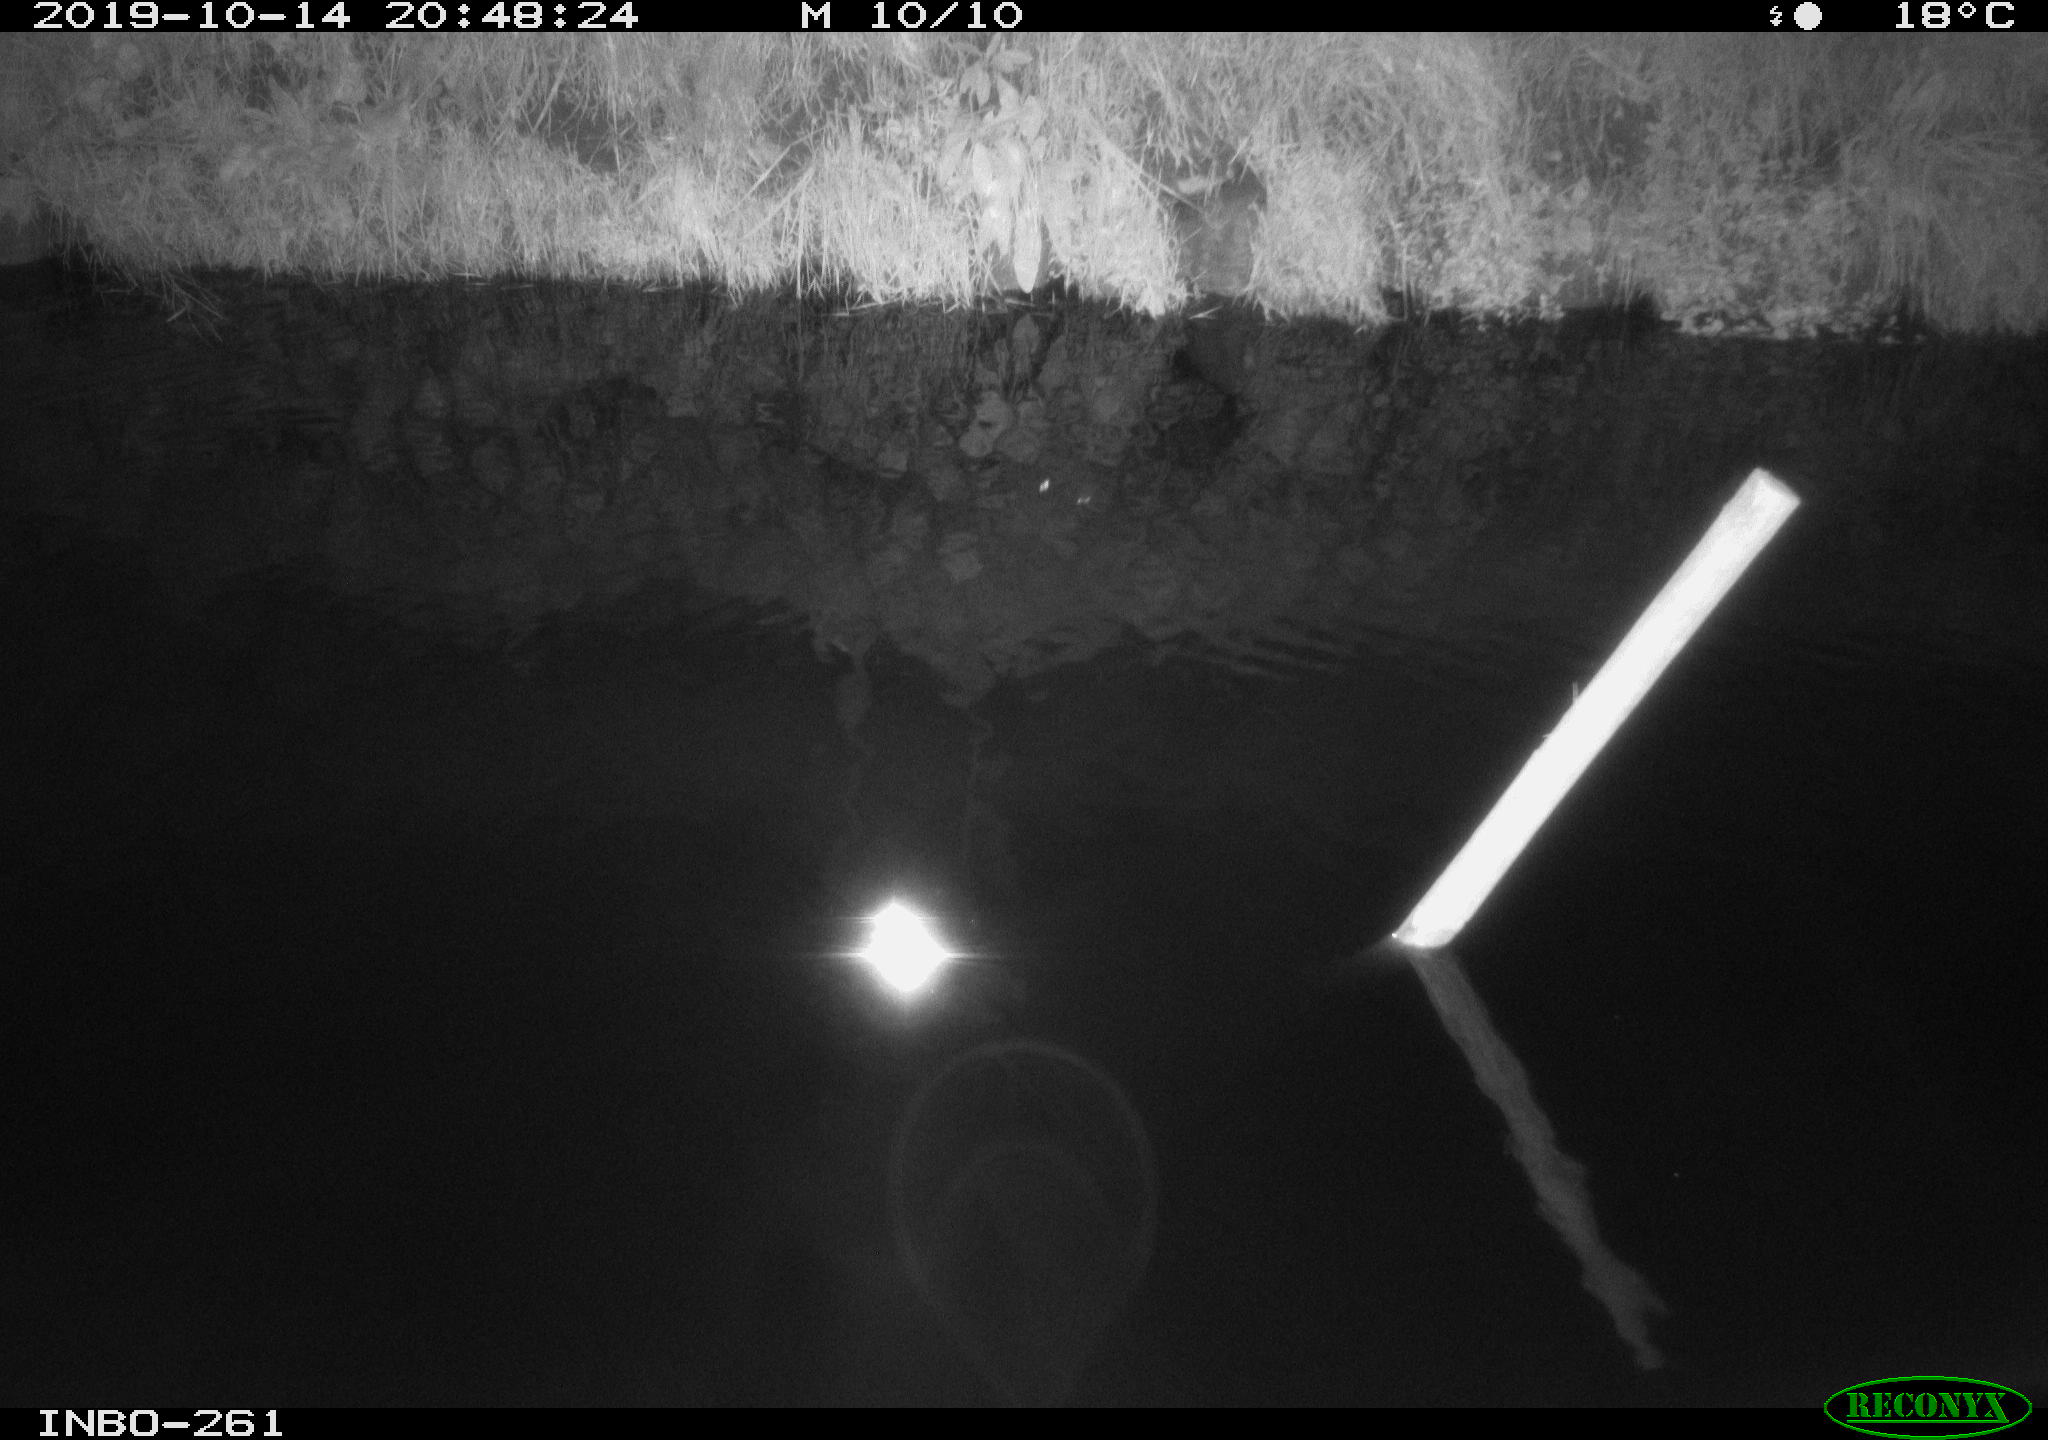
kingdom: Animalia
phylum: Chordata
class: Aves
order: Anseriformes
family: Anatidae
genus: Anas
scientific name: Anas platyrhynchos
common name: Mallard
